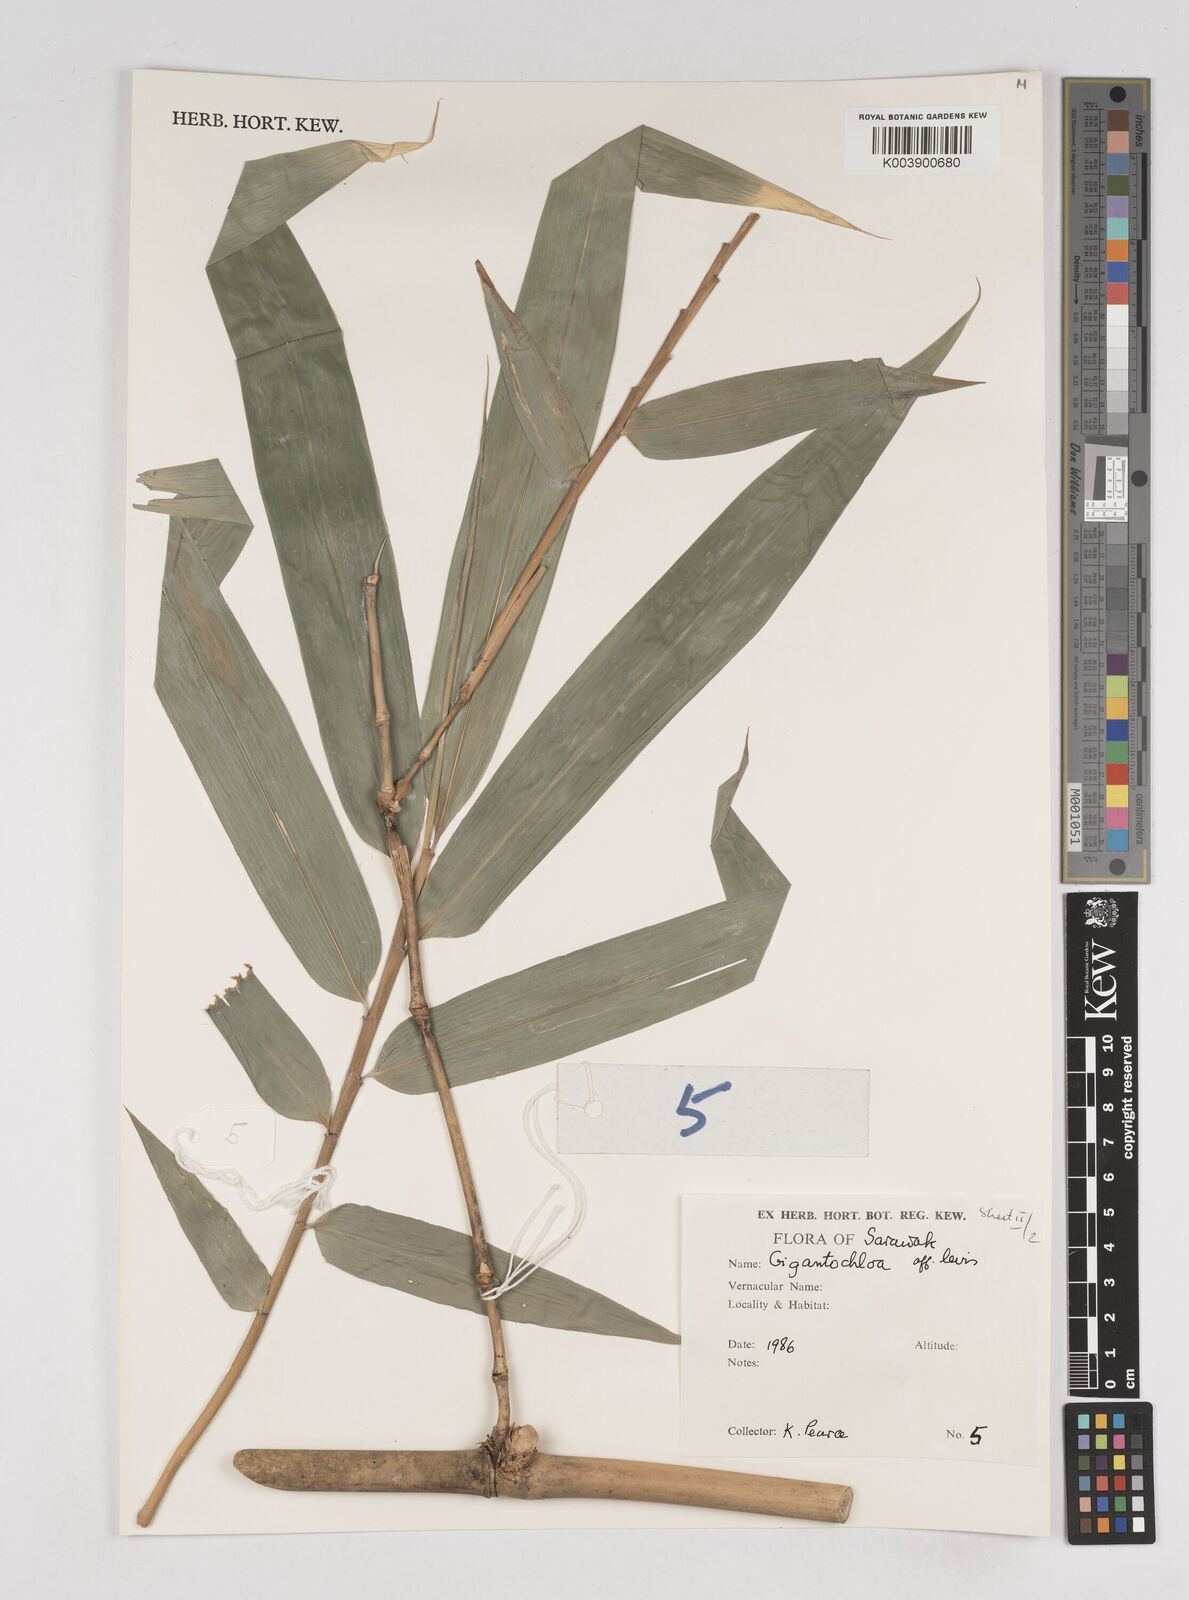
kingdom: Plantae
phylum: Tracheophyta
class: Liliopsida
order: Poales
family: Poaceae
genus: Gigantochloa
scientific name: Gigantochloa
